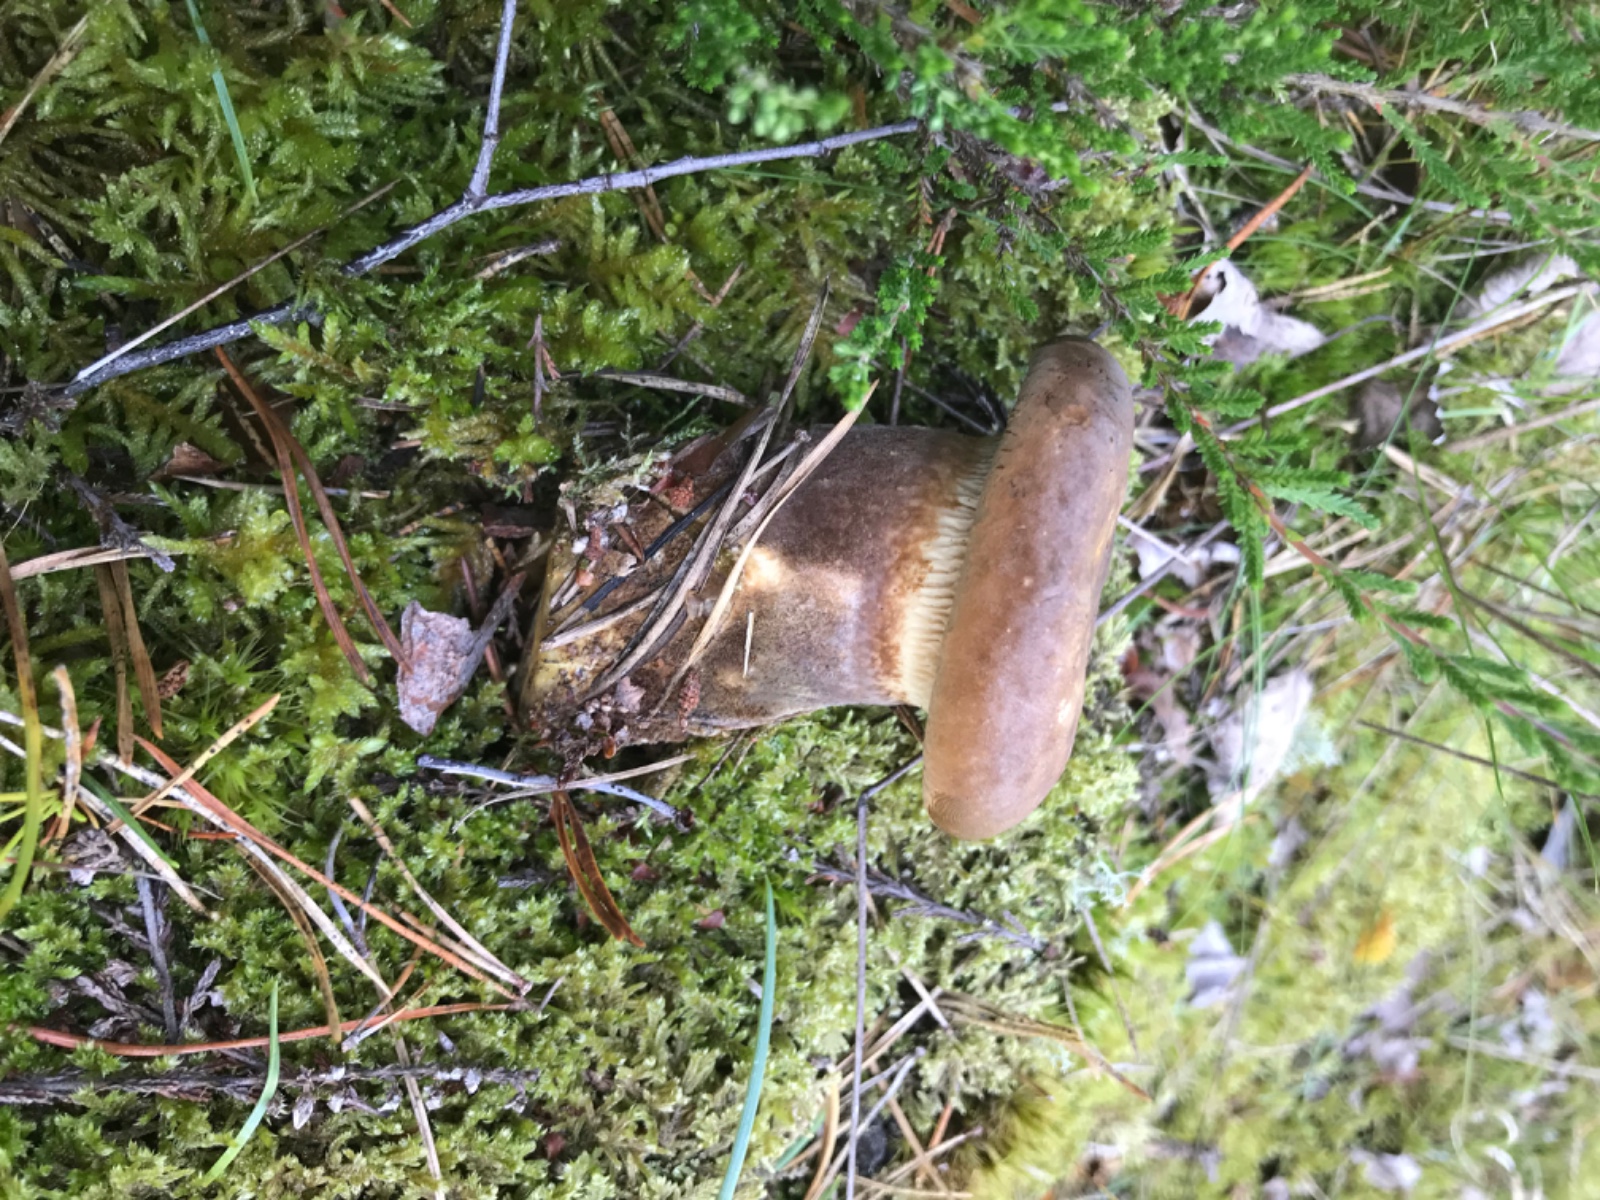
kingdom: Fungi
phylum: Basidiomycota
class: Agaricomycetes
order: Boletales
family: Tapinellaceae
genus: Tapinella
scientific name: Tapinella atrotomentosa
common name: sortfiltet viftesvamp
